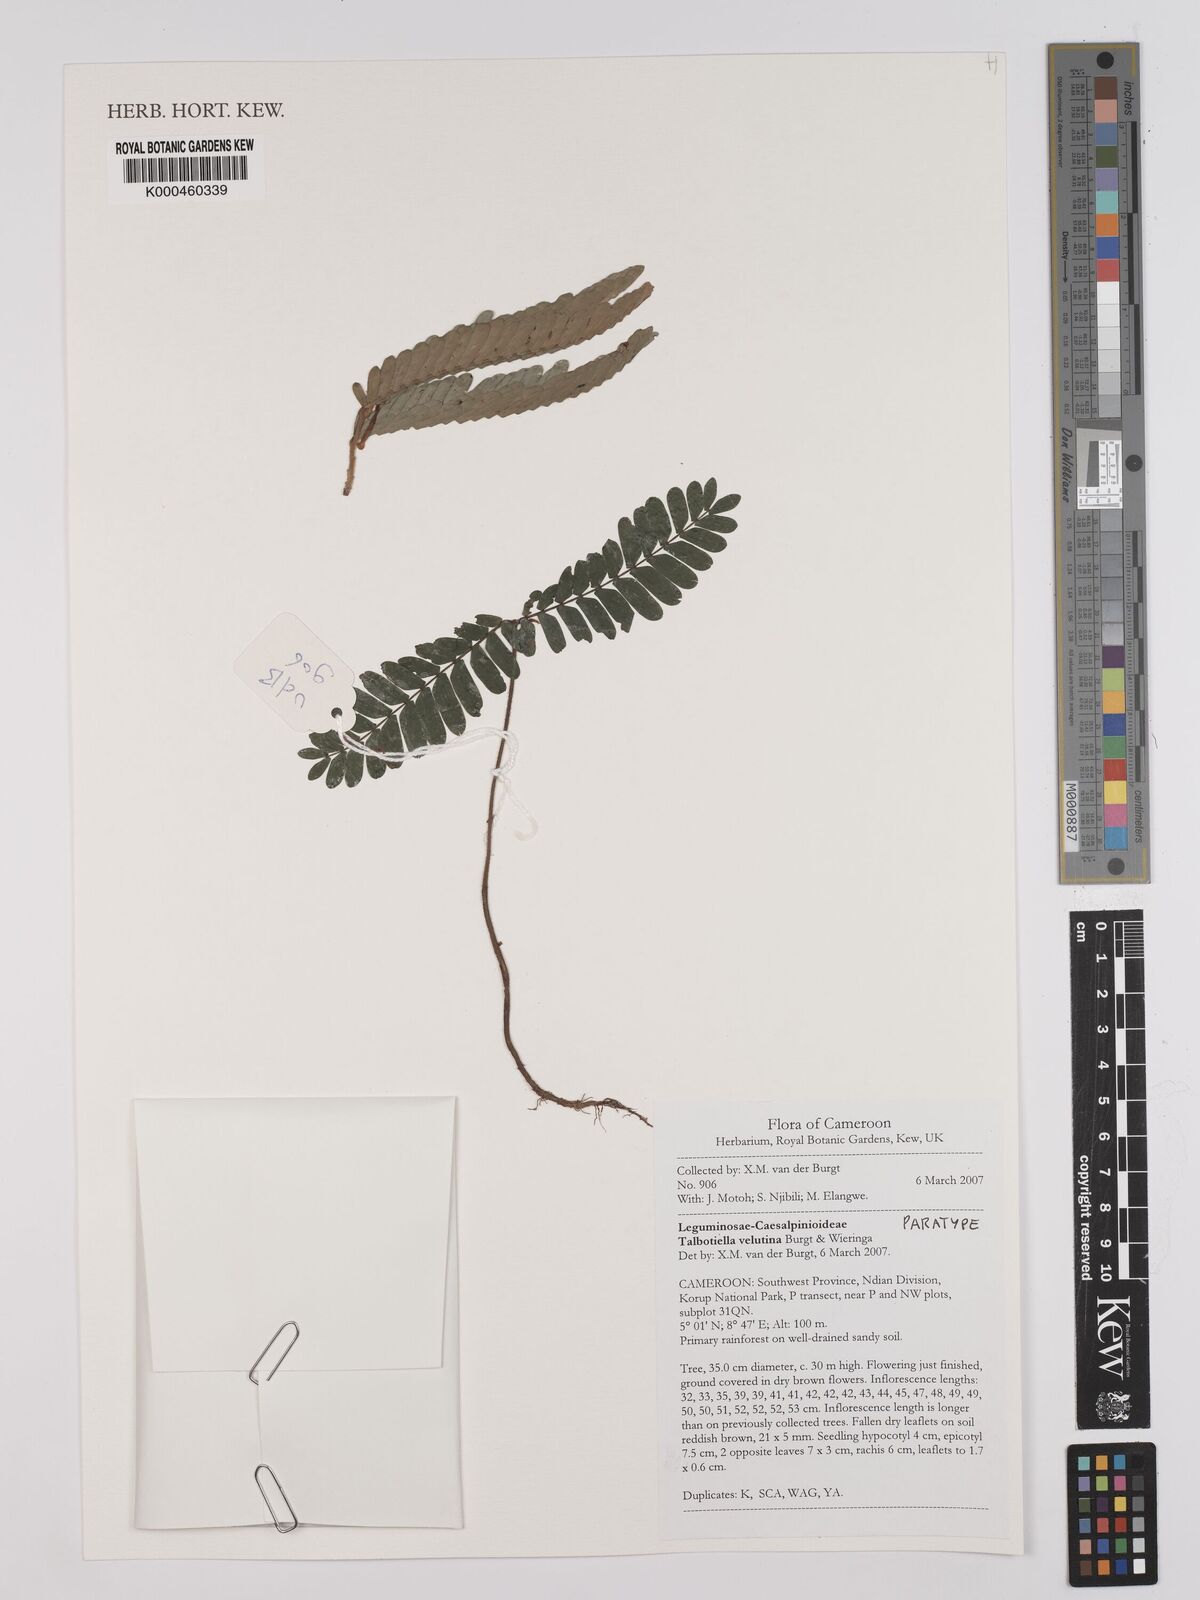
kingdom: Plantae
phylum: Tracheophyta
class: Magnoliopsida
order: Fabales
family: Fabaceae
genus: Talbotiella
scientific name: Talbotiella velutina
